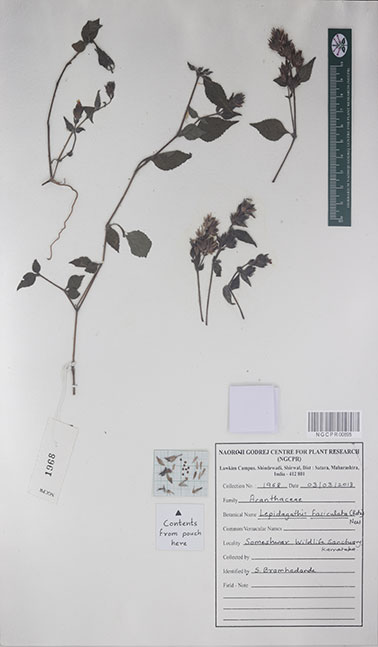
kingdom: Plantae
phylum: Tracheophyta
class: Magnoliopsida
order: Lamiales
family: Acanthaceae
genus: Lepidagathis
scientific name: Lepidagathis fasciculata
